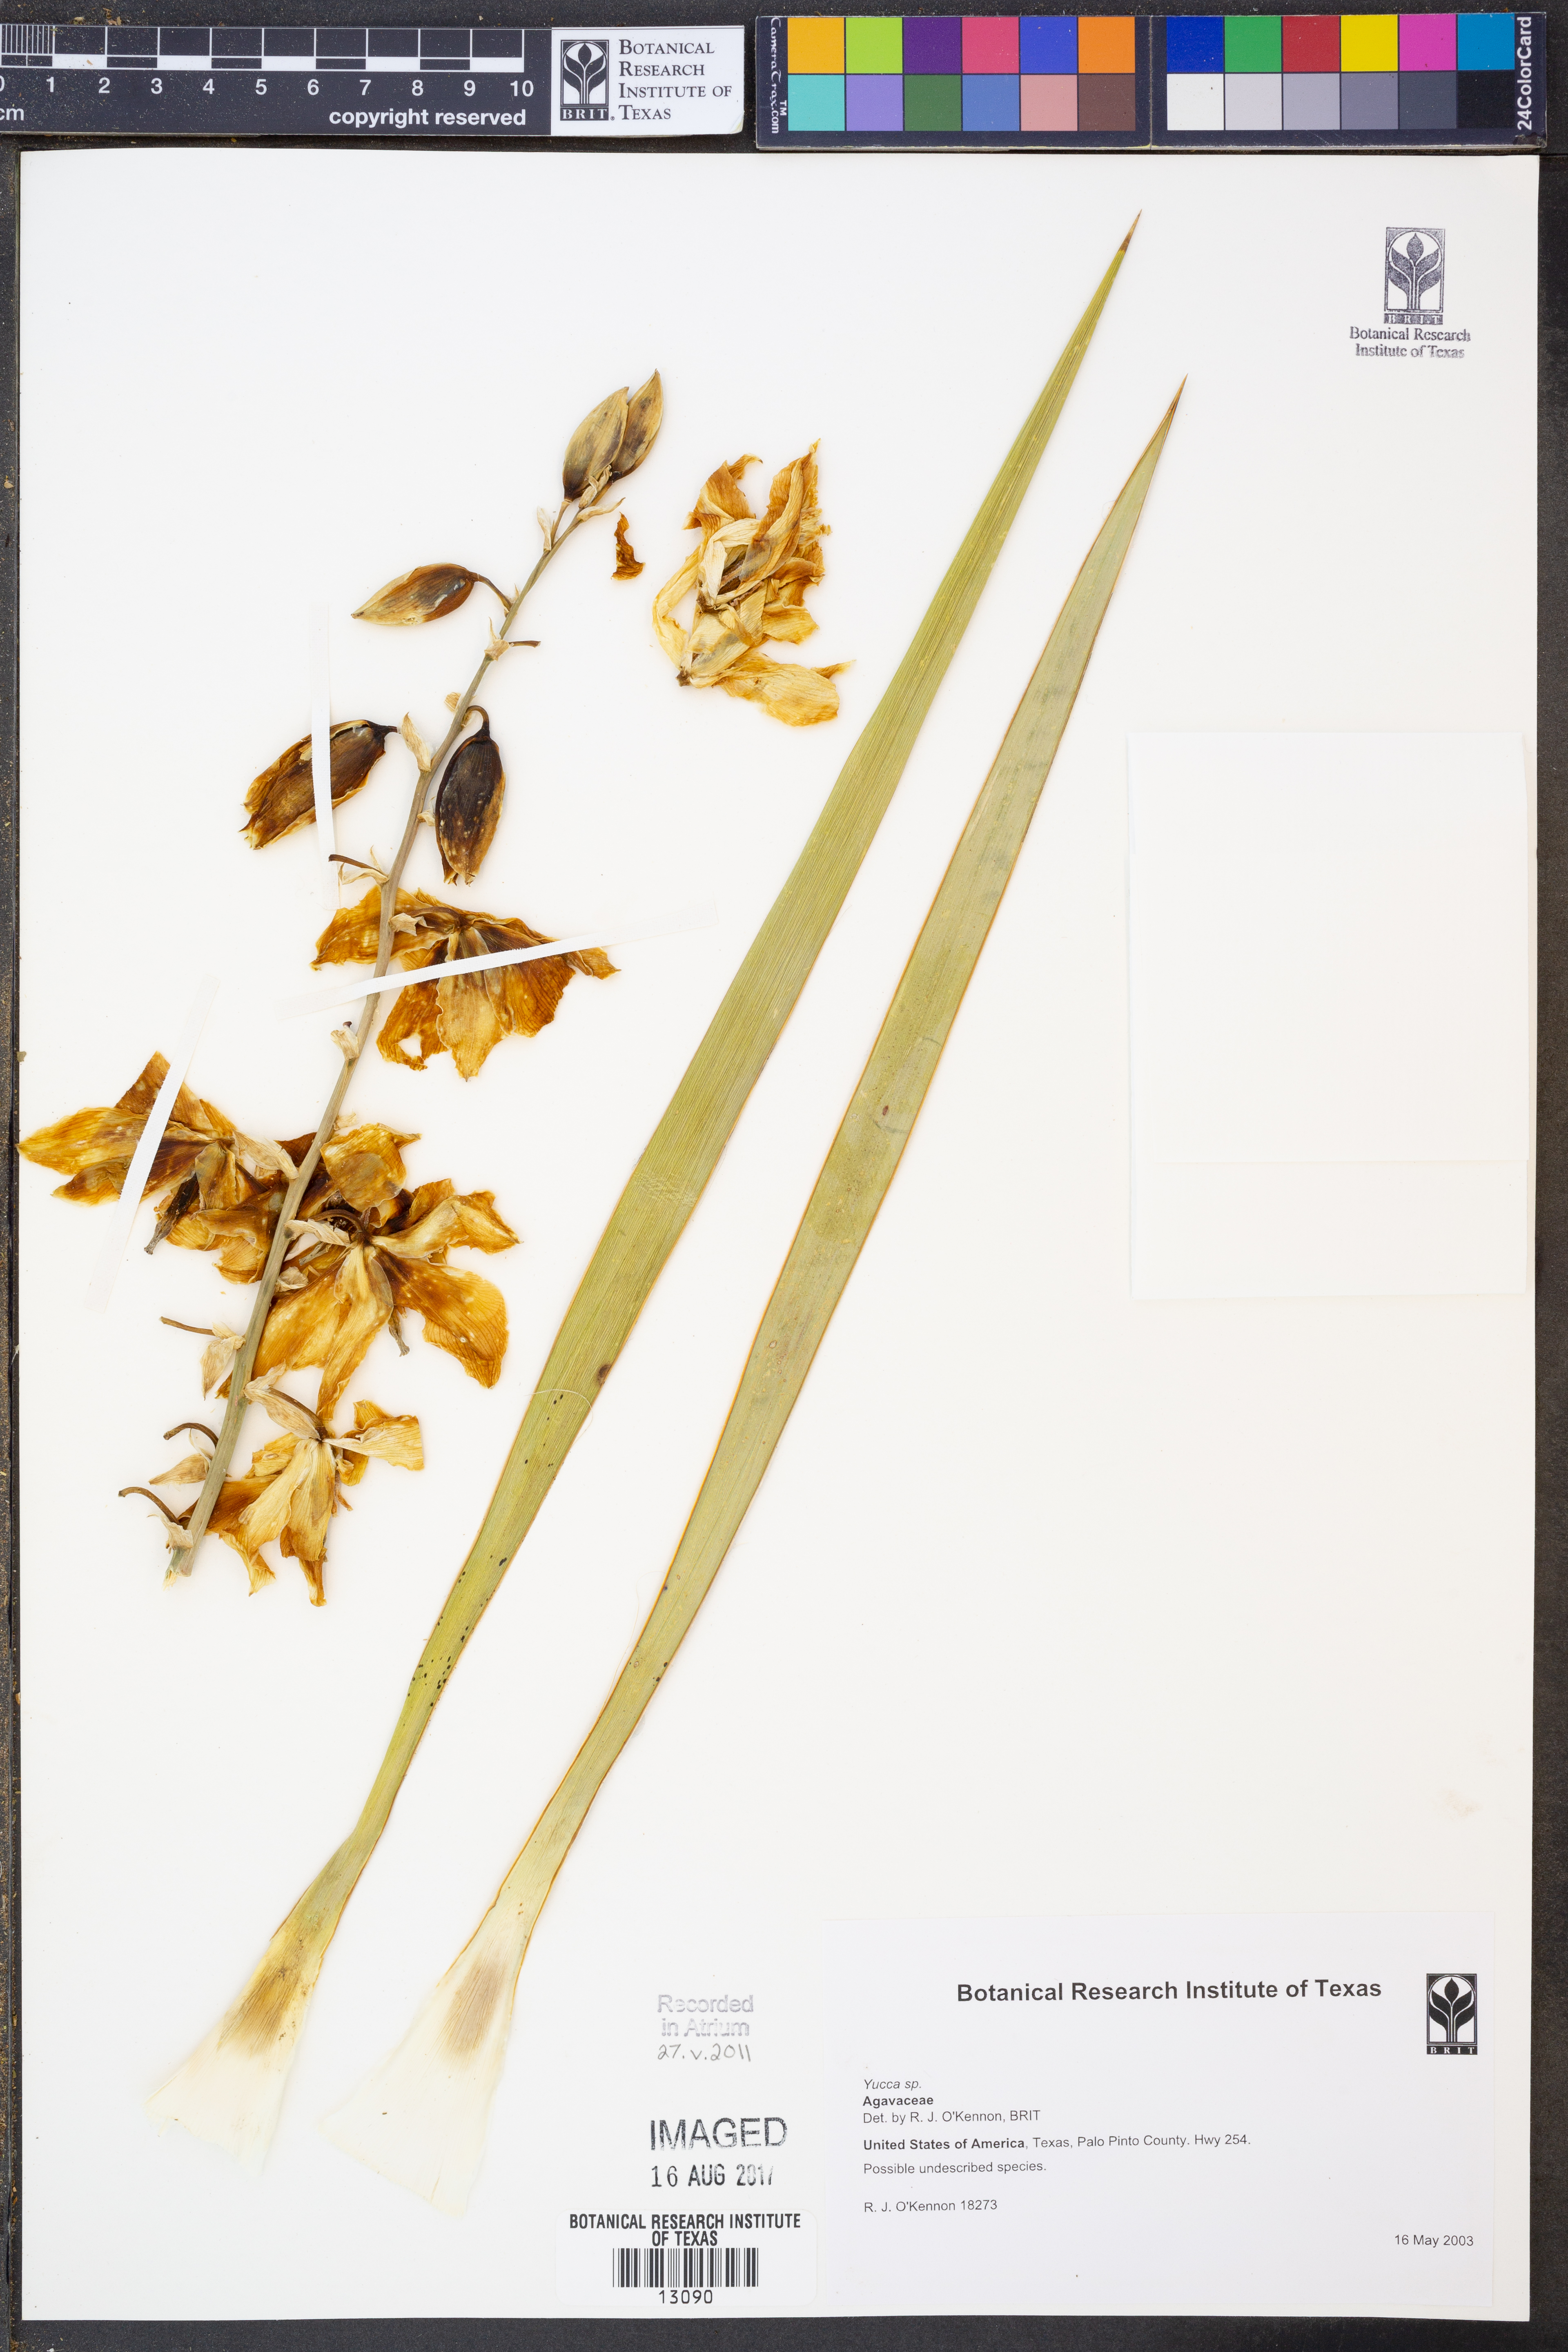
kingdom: Plantae
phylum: Tracheophyta
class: Liliopsida
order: Asparagales
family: Asparagaceae
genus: Yucca
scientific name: Yucca
